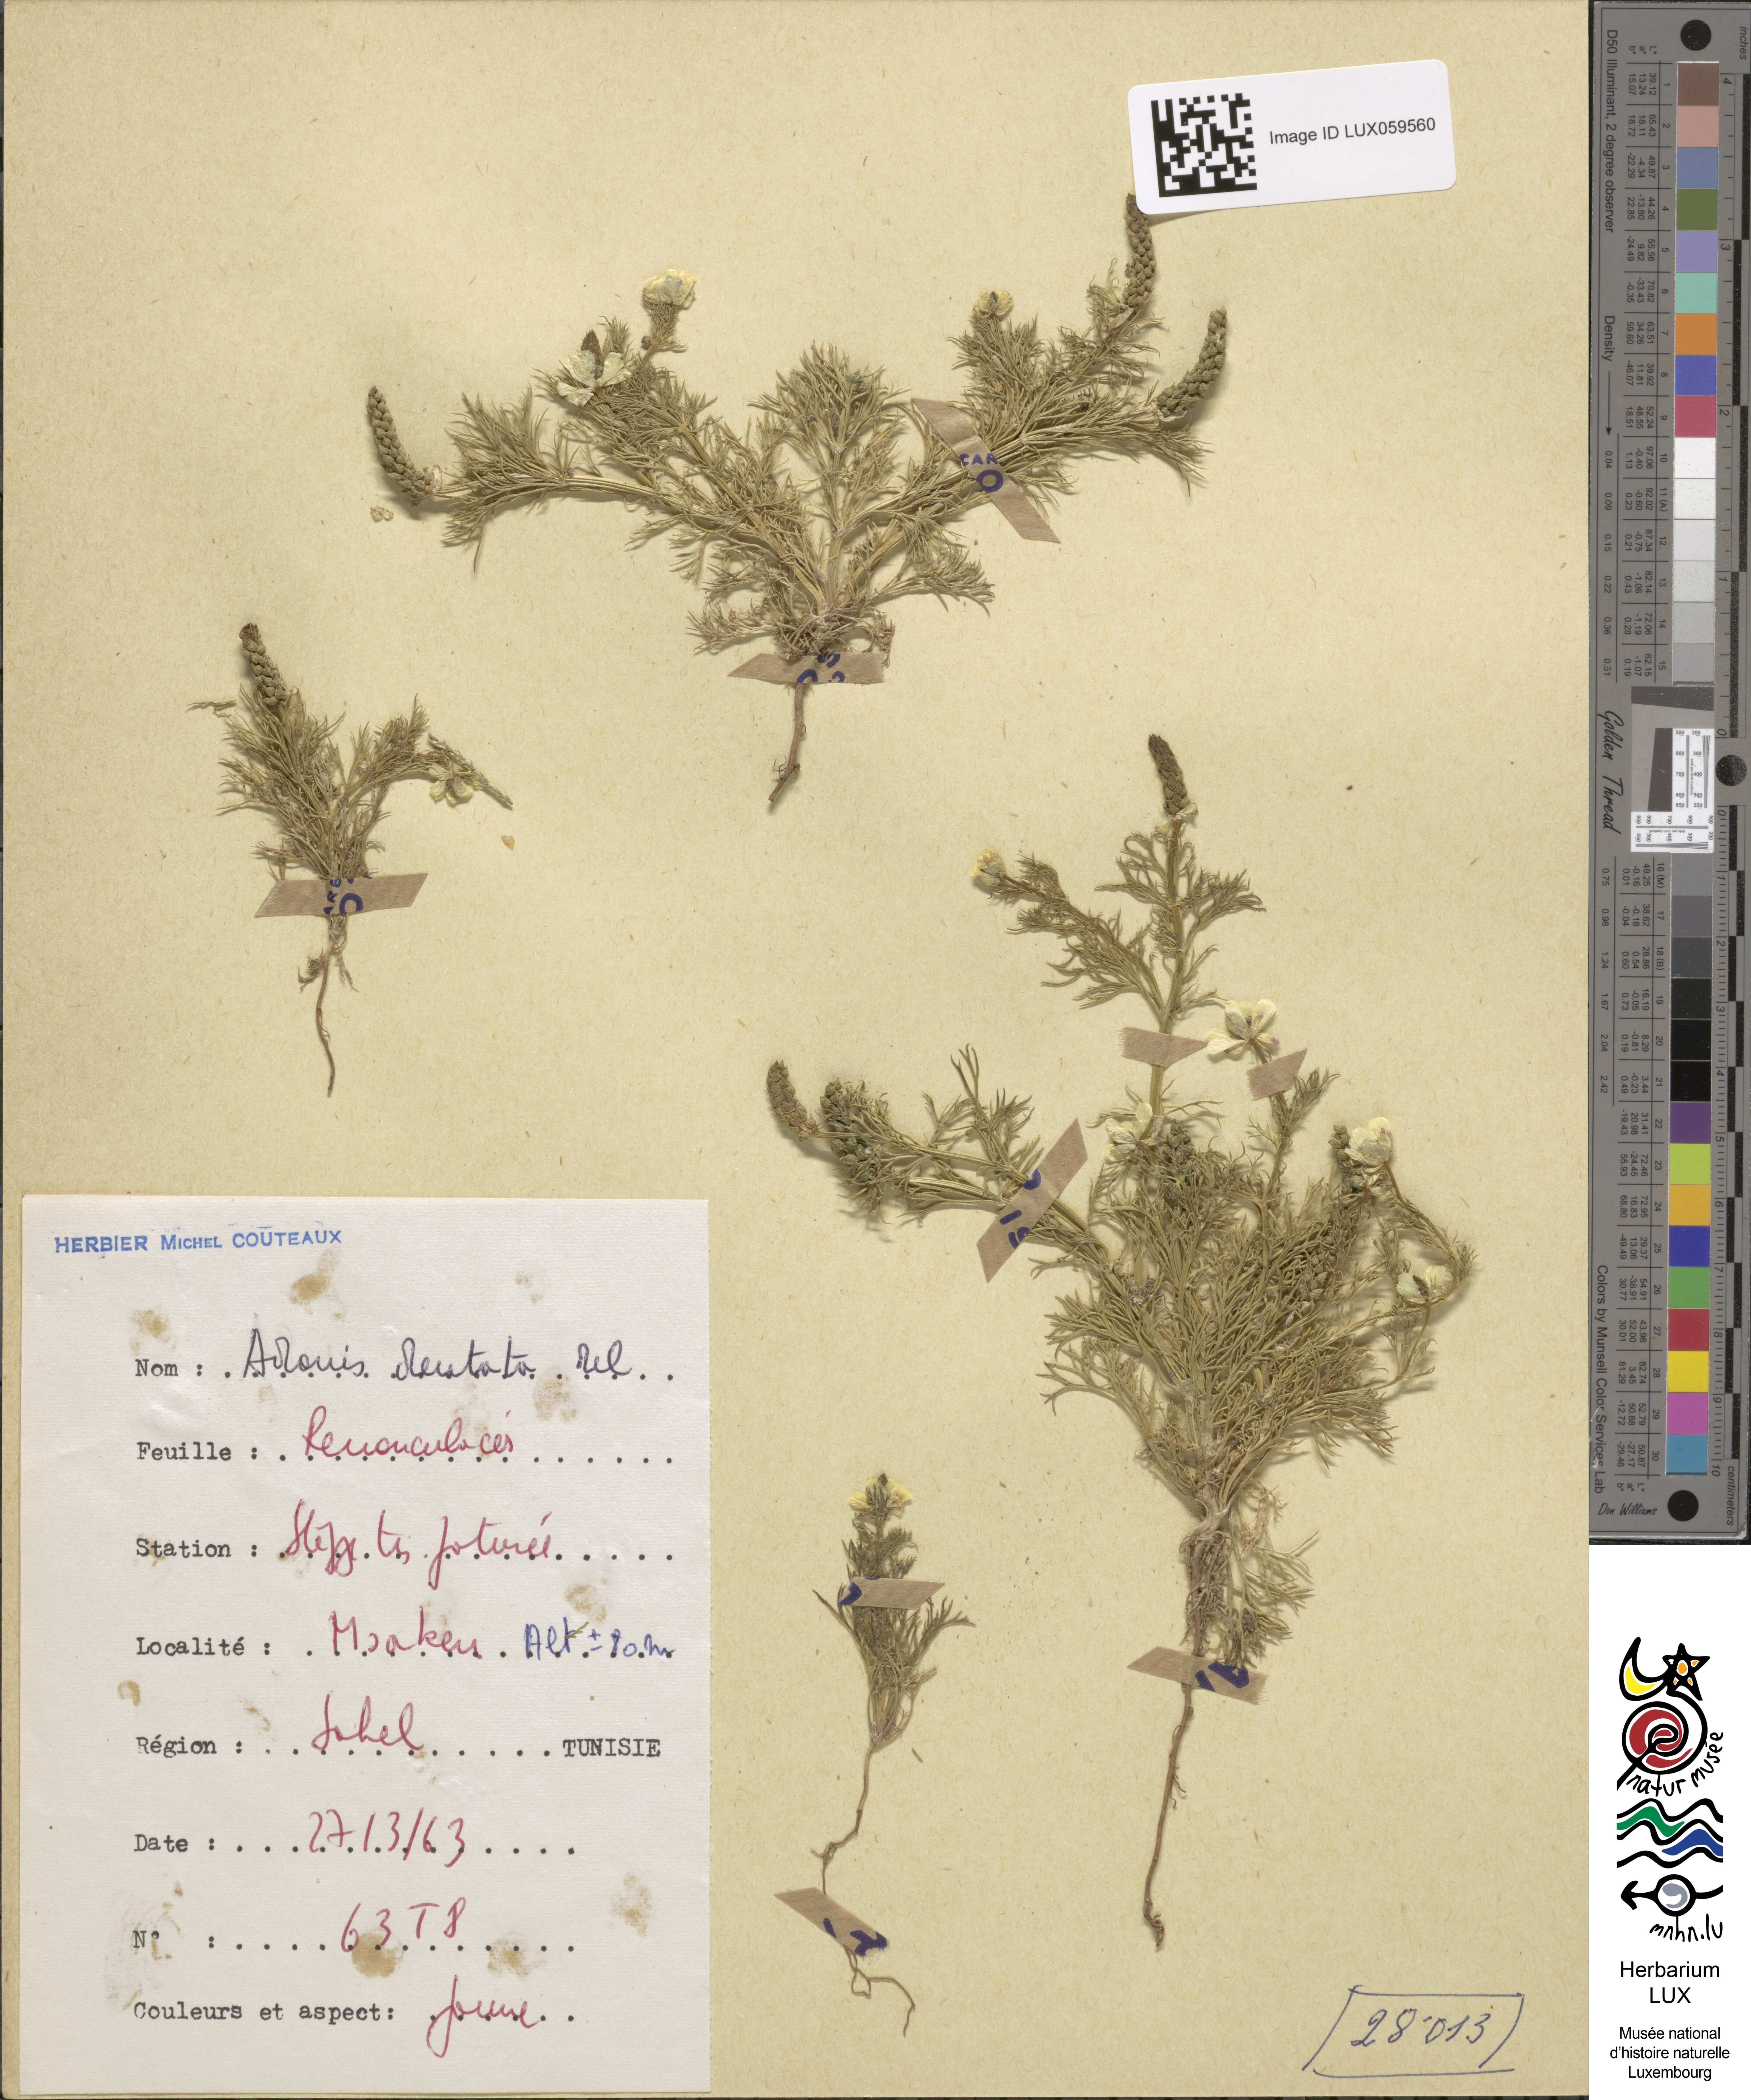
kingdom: Plantae
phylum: Tracheophyta
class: Magnoliopsida
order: Ranunculales
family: Ranunculaceae
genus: Adonis
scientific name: Adonis dentata
